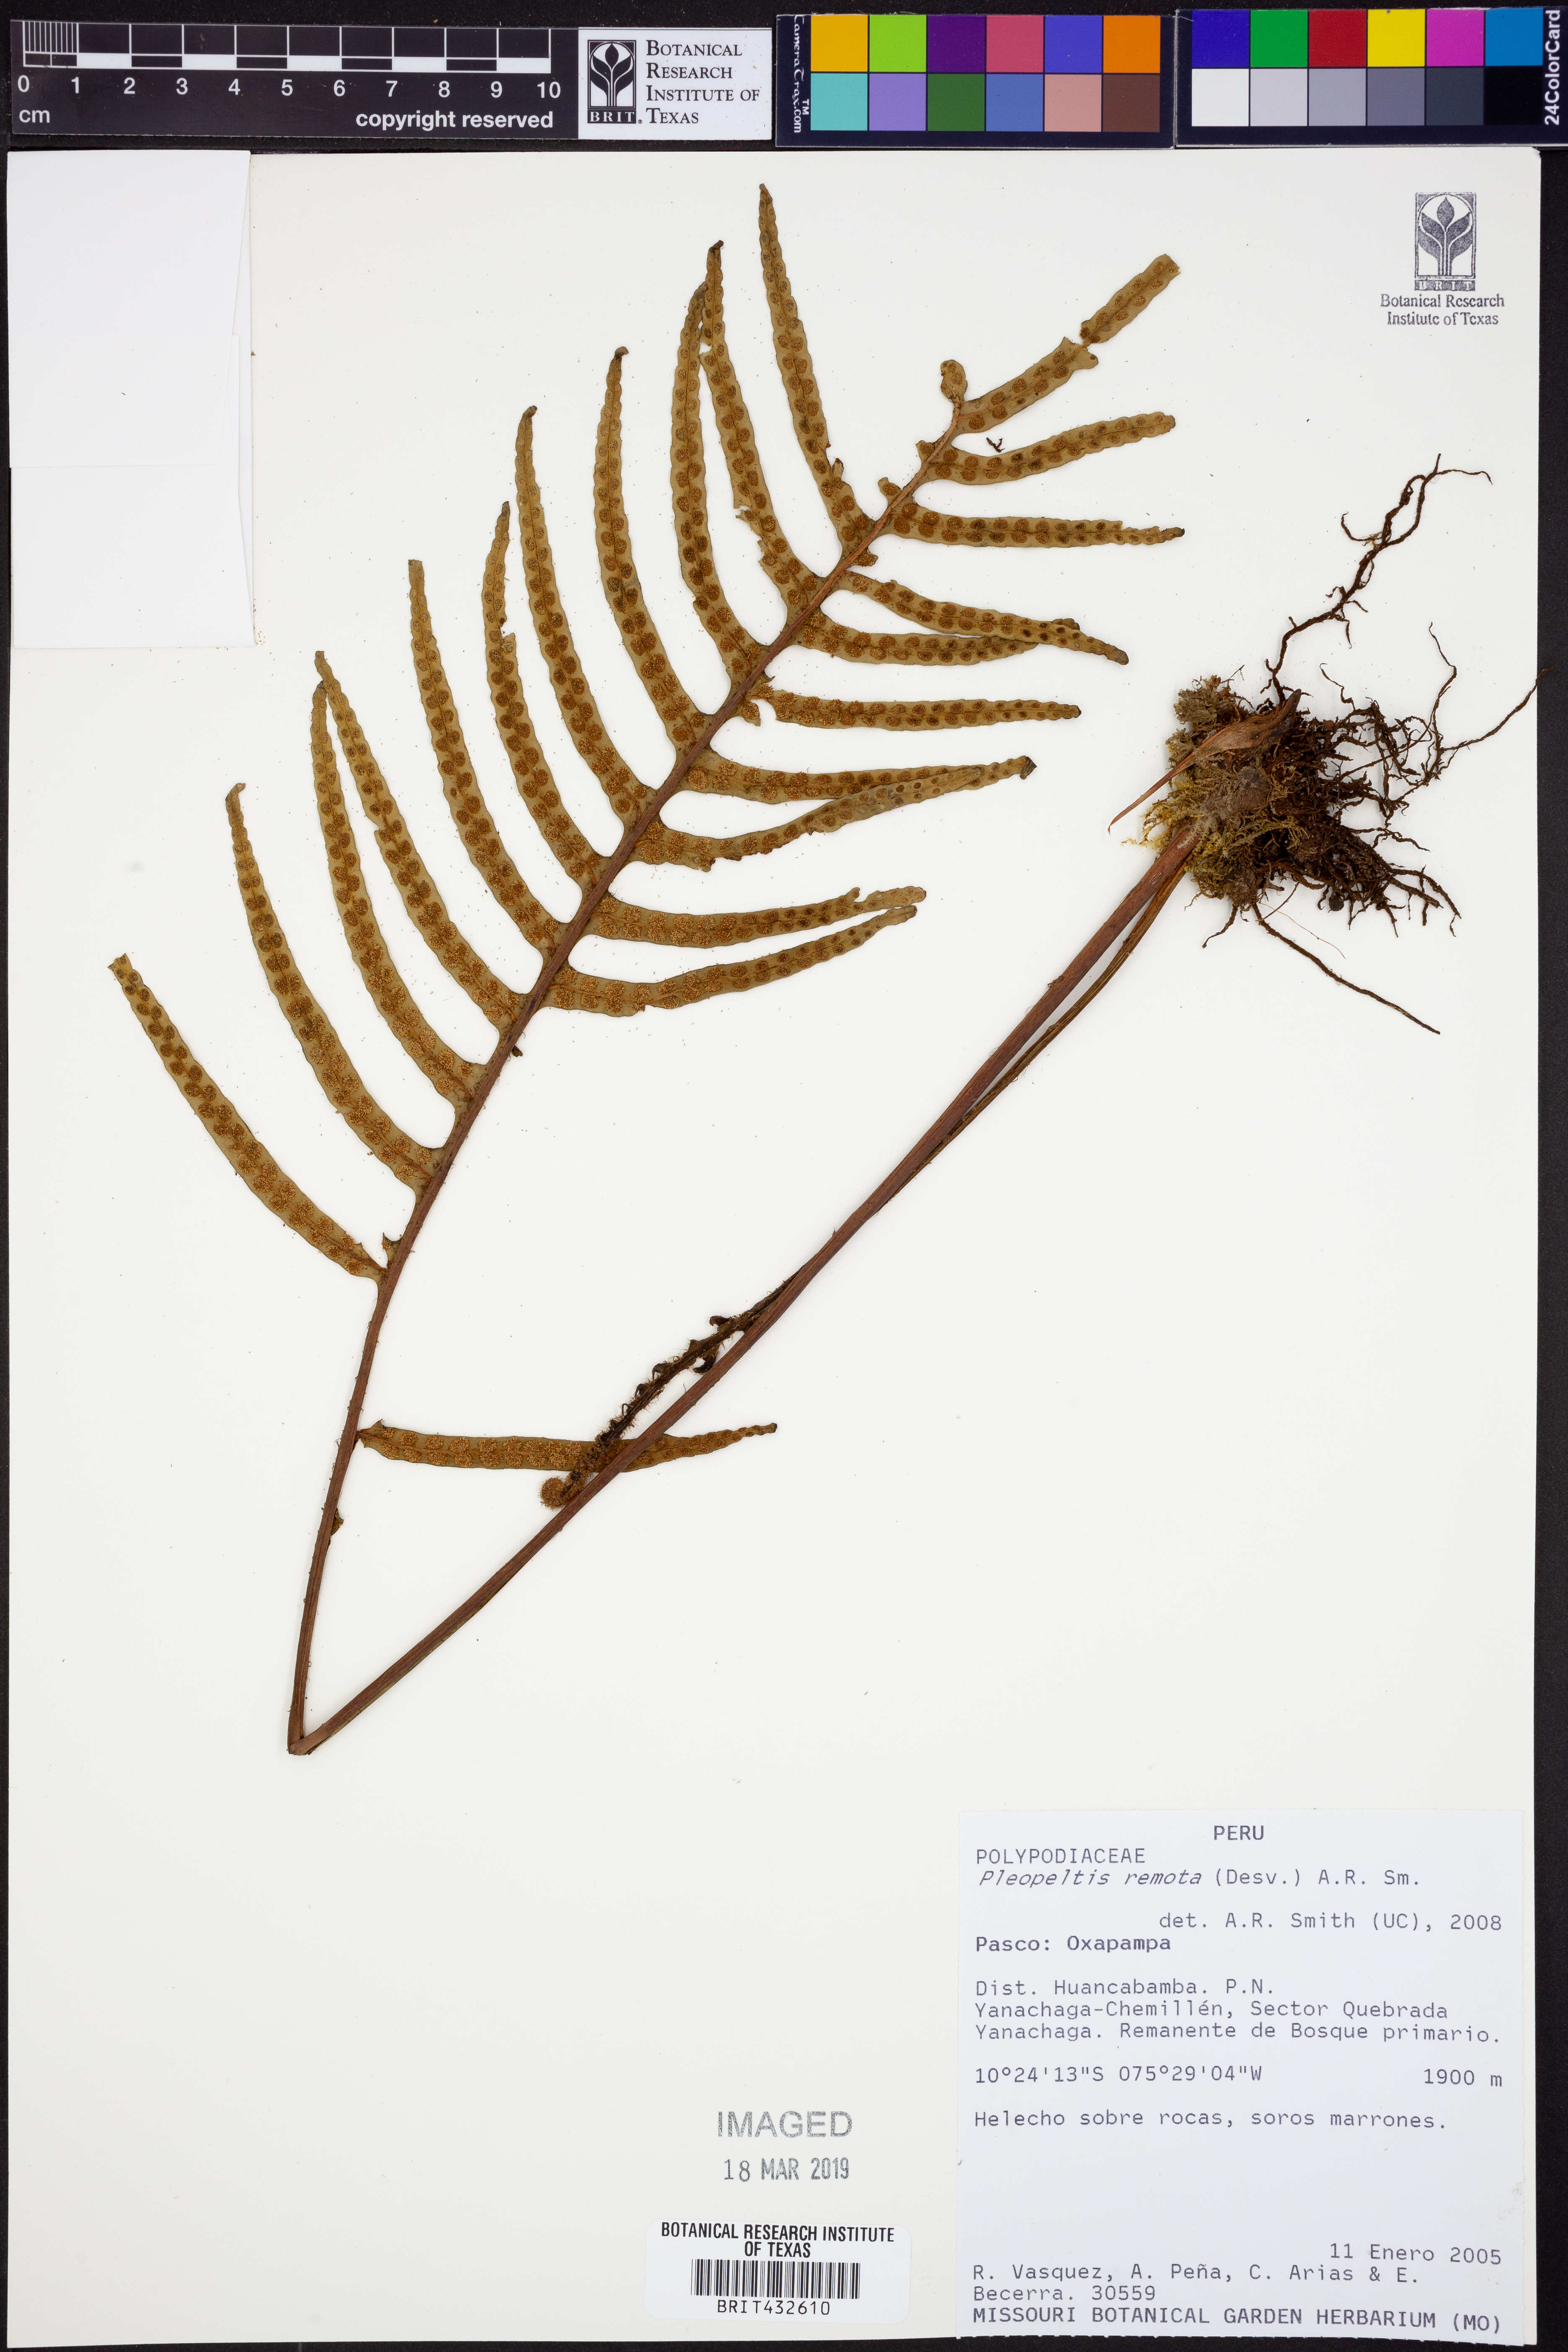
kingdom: Plantae
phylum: Tracheophyta
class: Polypodiopsida
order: Polypodiales
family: Polypodiaceae
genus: Pleopeltis
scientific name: Pleopeltis remota
